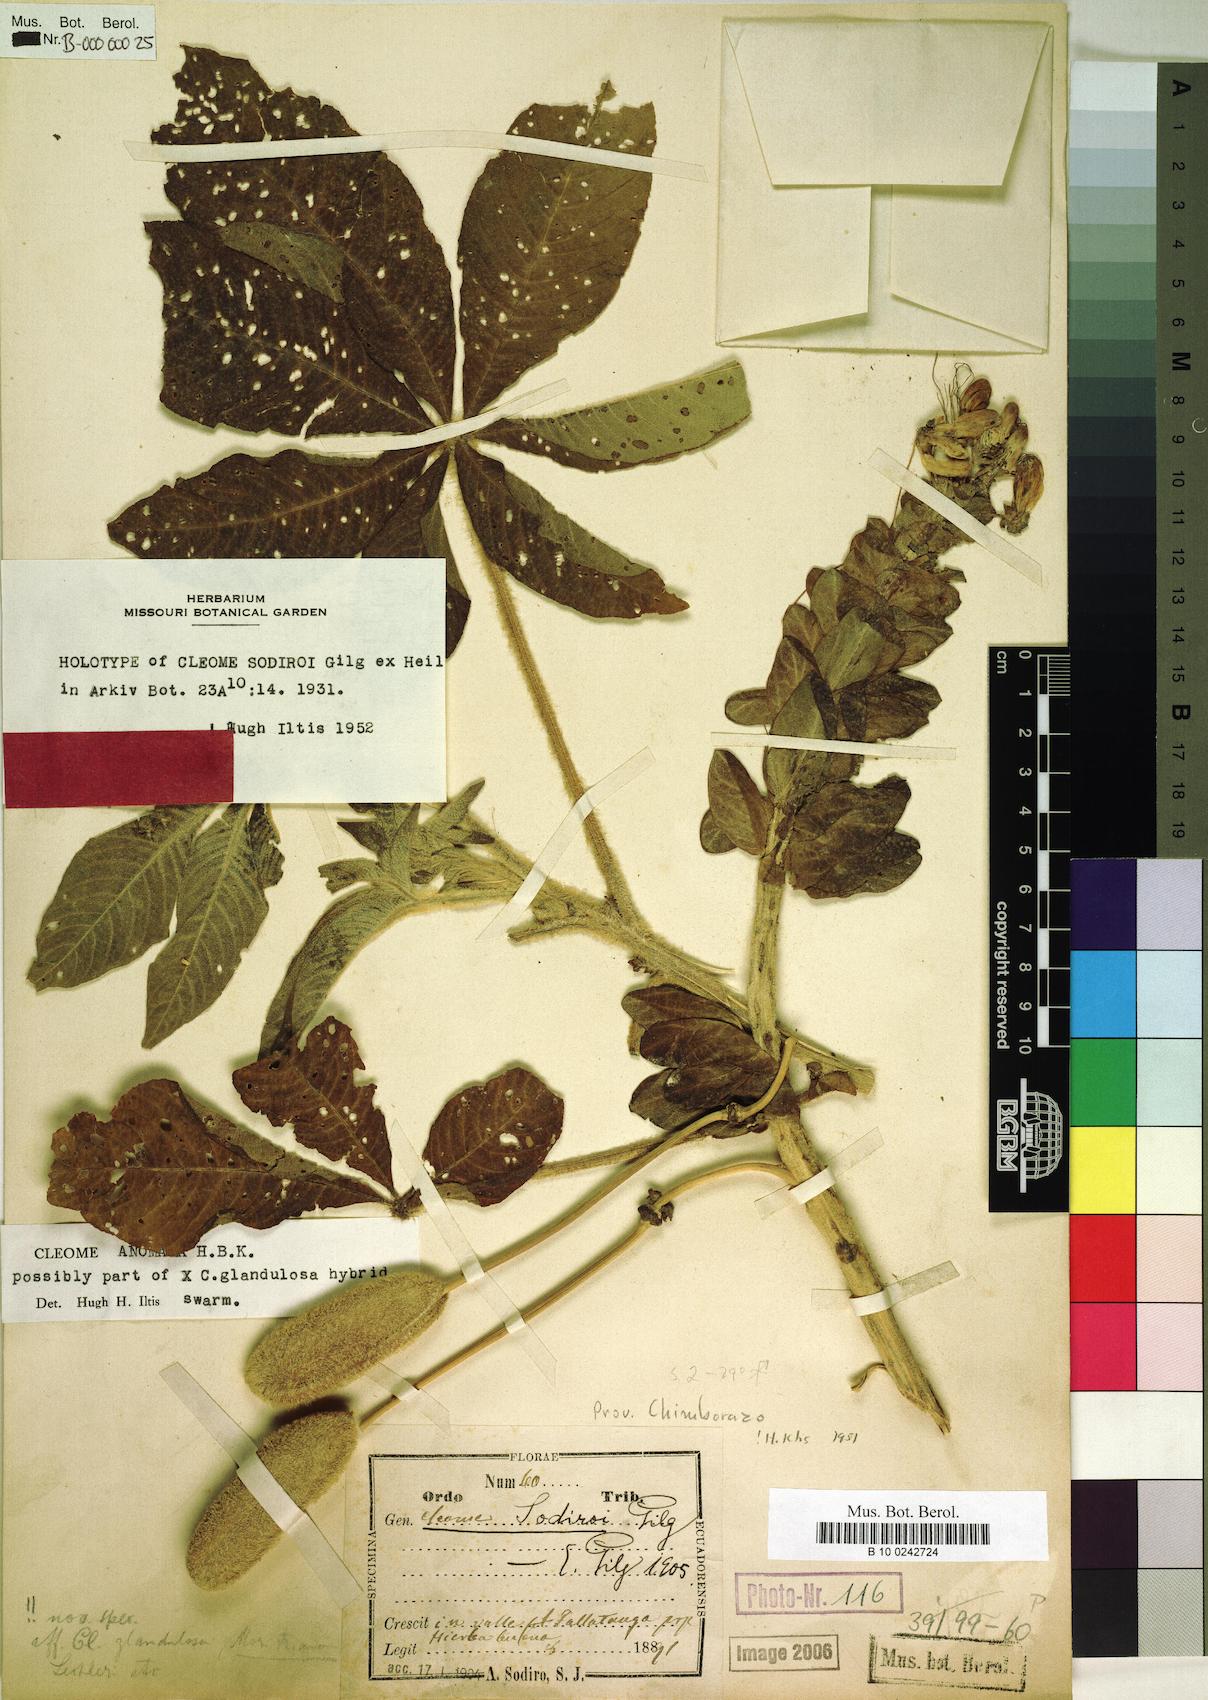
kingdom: Plantae
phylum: Tracheophyta
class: Magnoliopsida
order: Brassicales
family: Cleomaceae
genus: Andinocleome
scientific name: Andinocleome anomala
